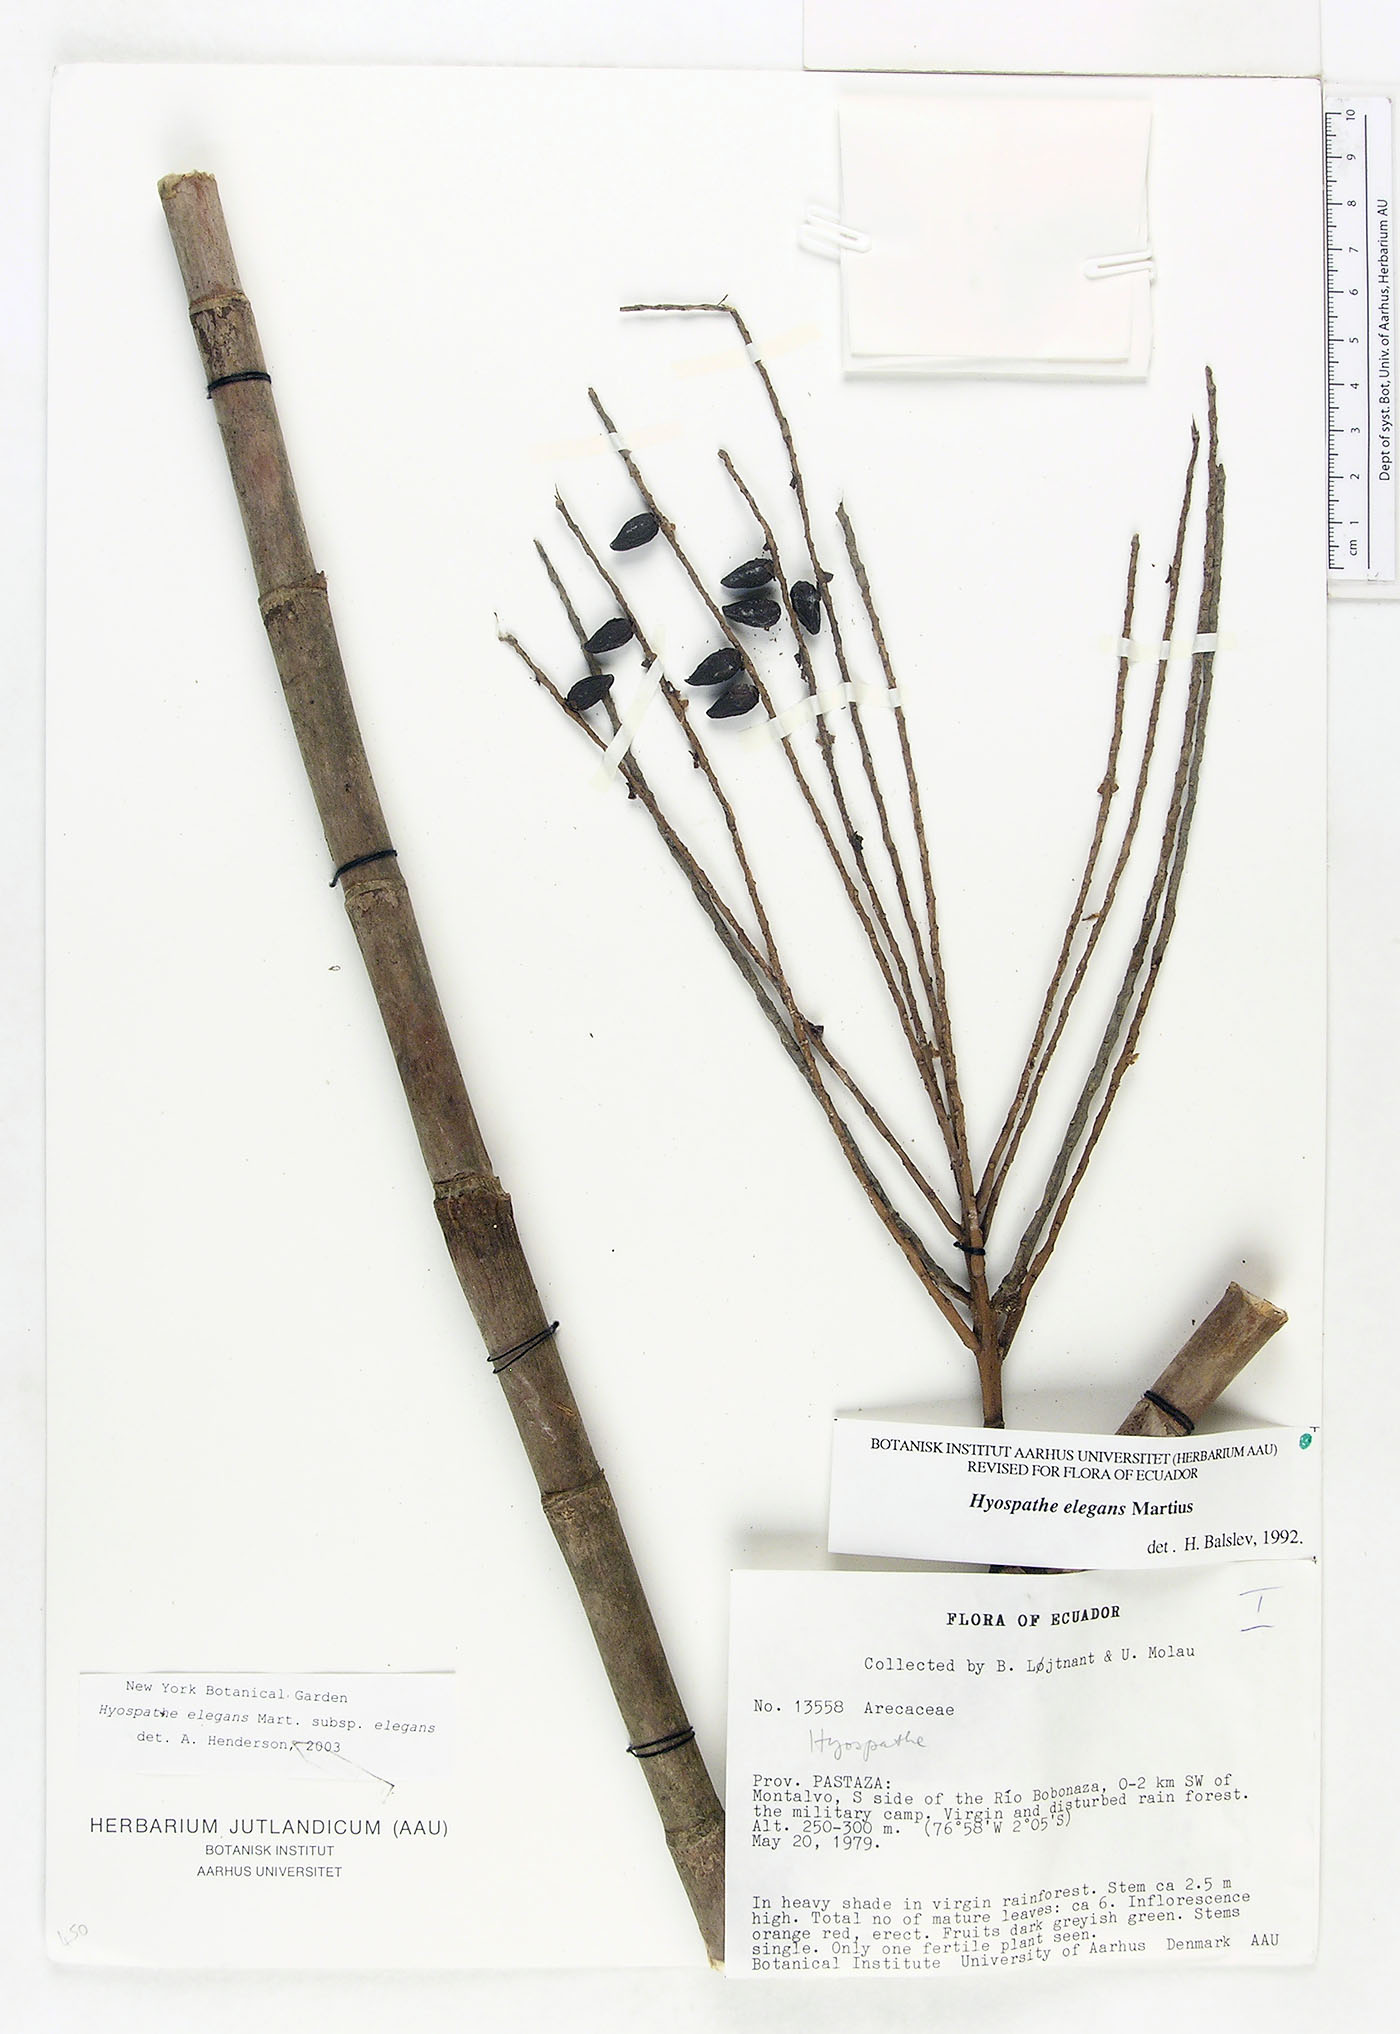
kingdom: Plantae
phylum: Tracheophyta
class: Liliopsida
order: Arecales
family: Arecaceae
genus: Hyospathe
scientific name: Hyospathe elegans
